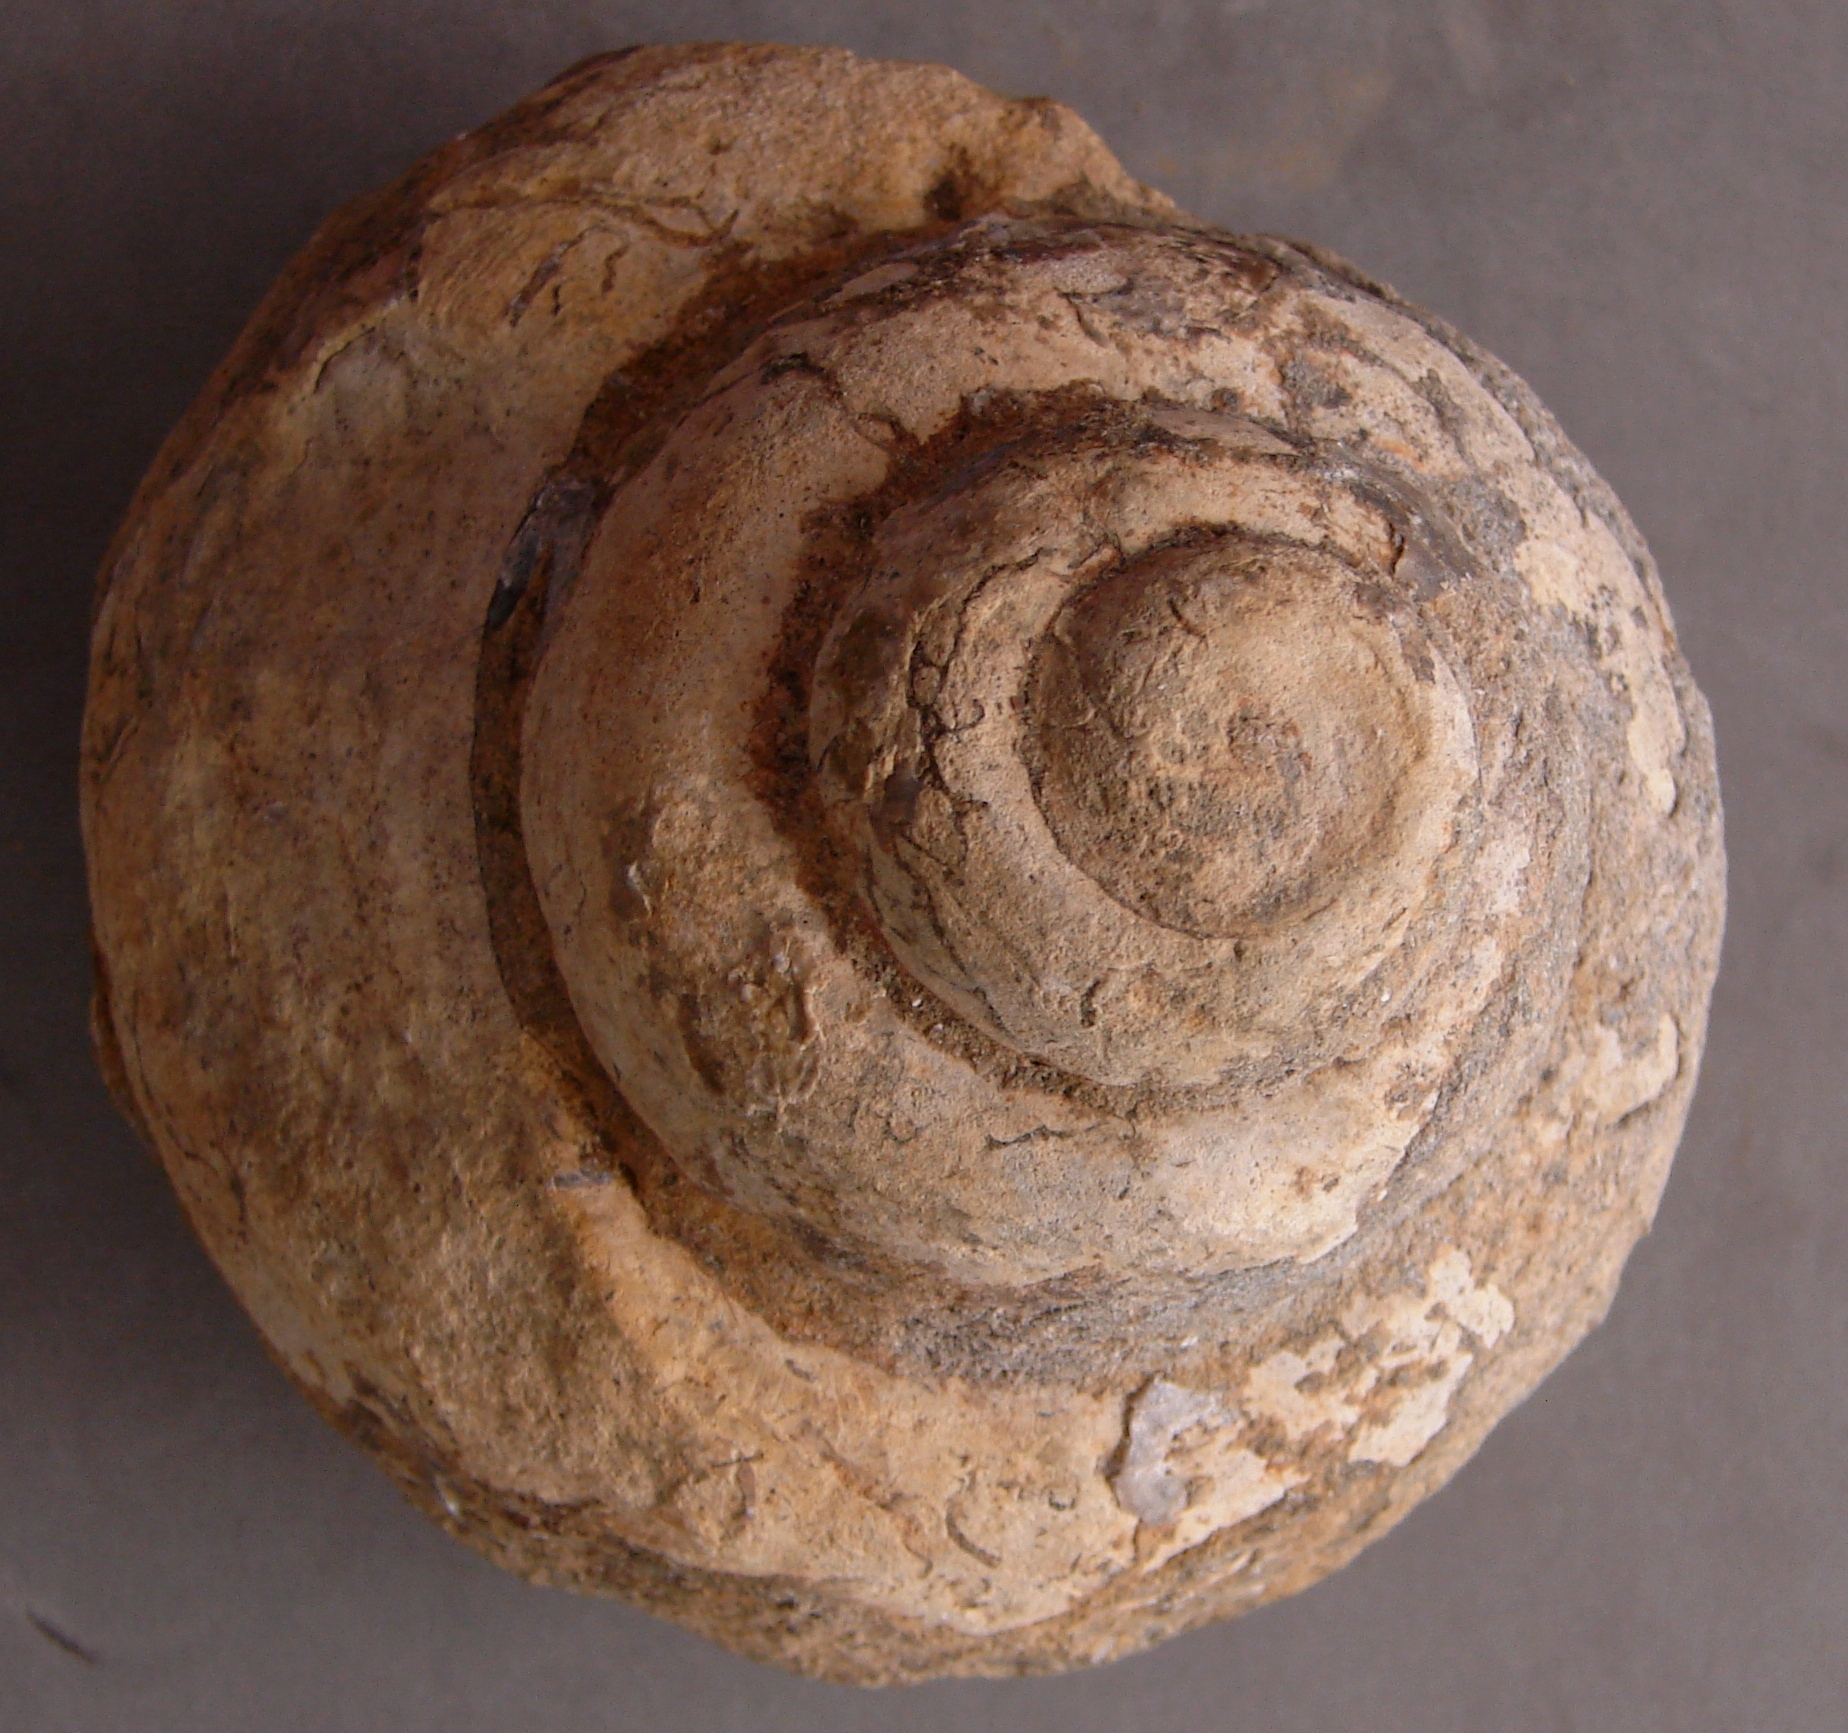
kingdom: Animalia
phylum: Mollusca
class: Gastropoda
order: Pleurotomariida
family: Pleurotomariidae
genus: Pleurotomaria
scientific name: Pleurotomaria
